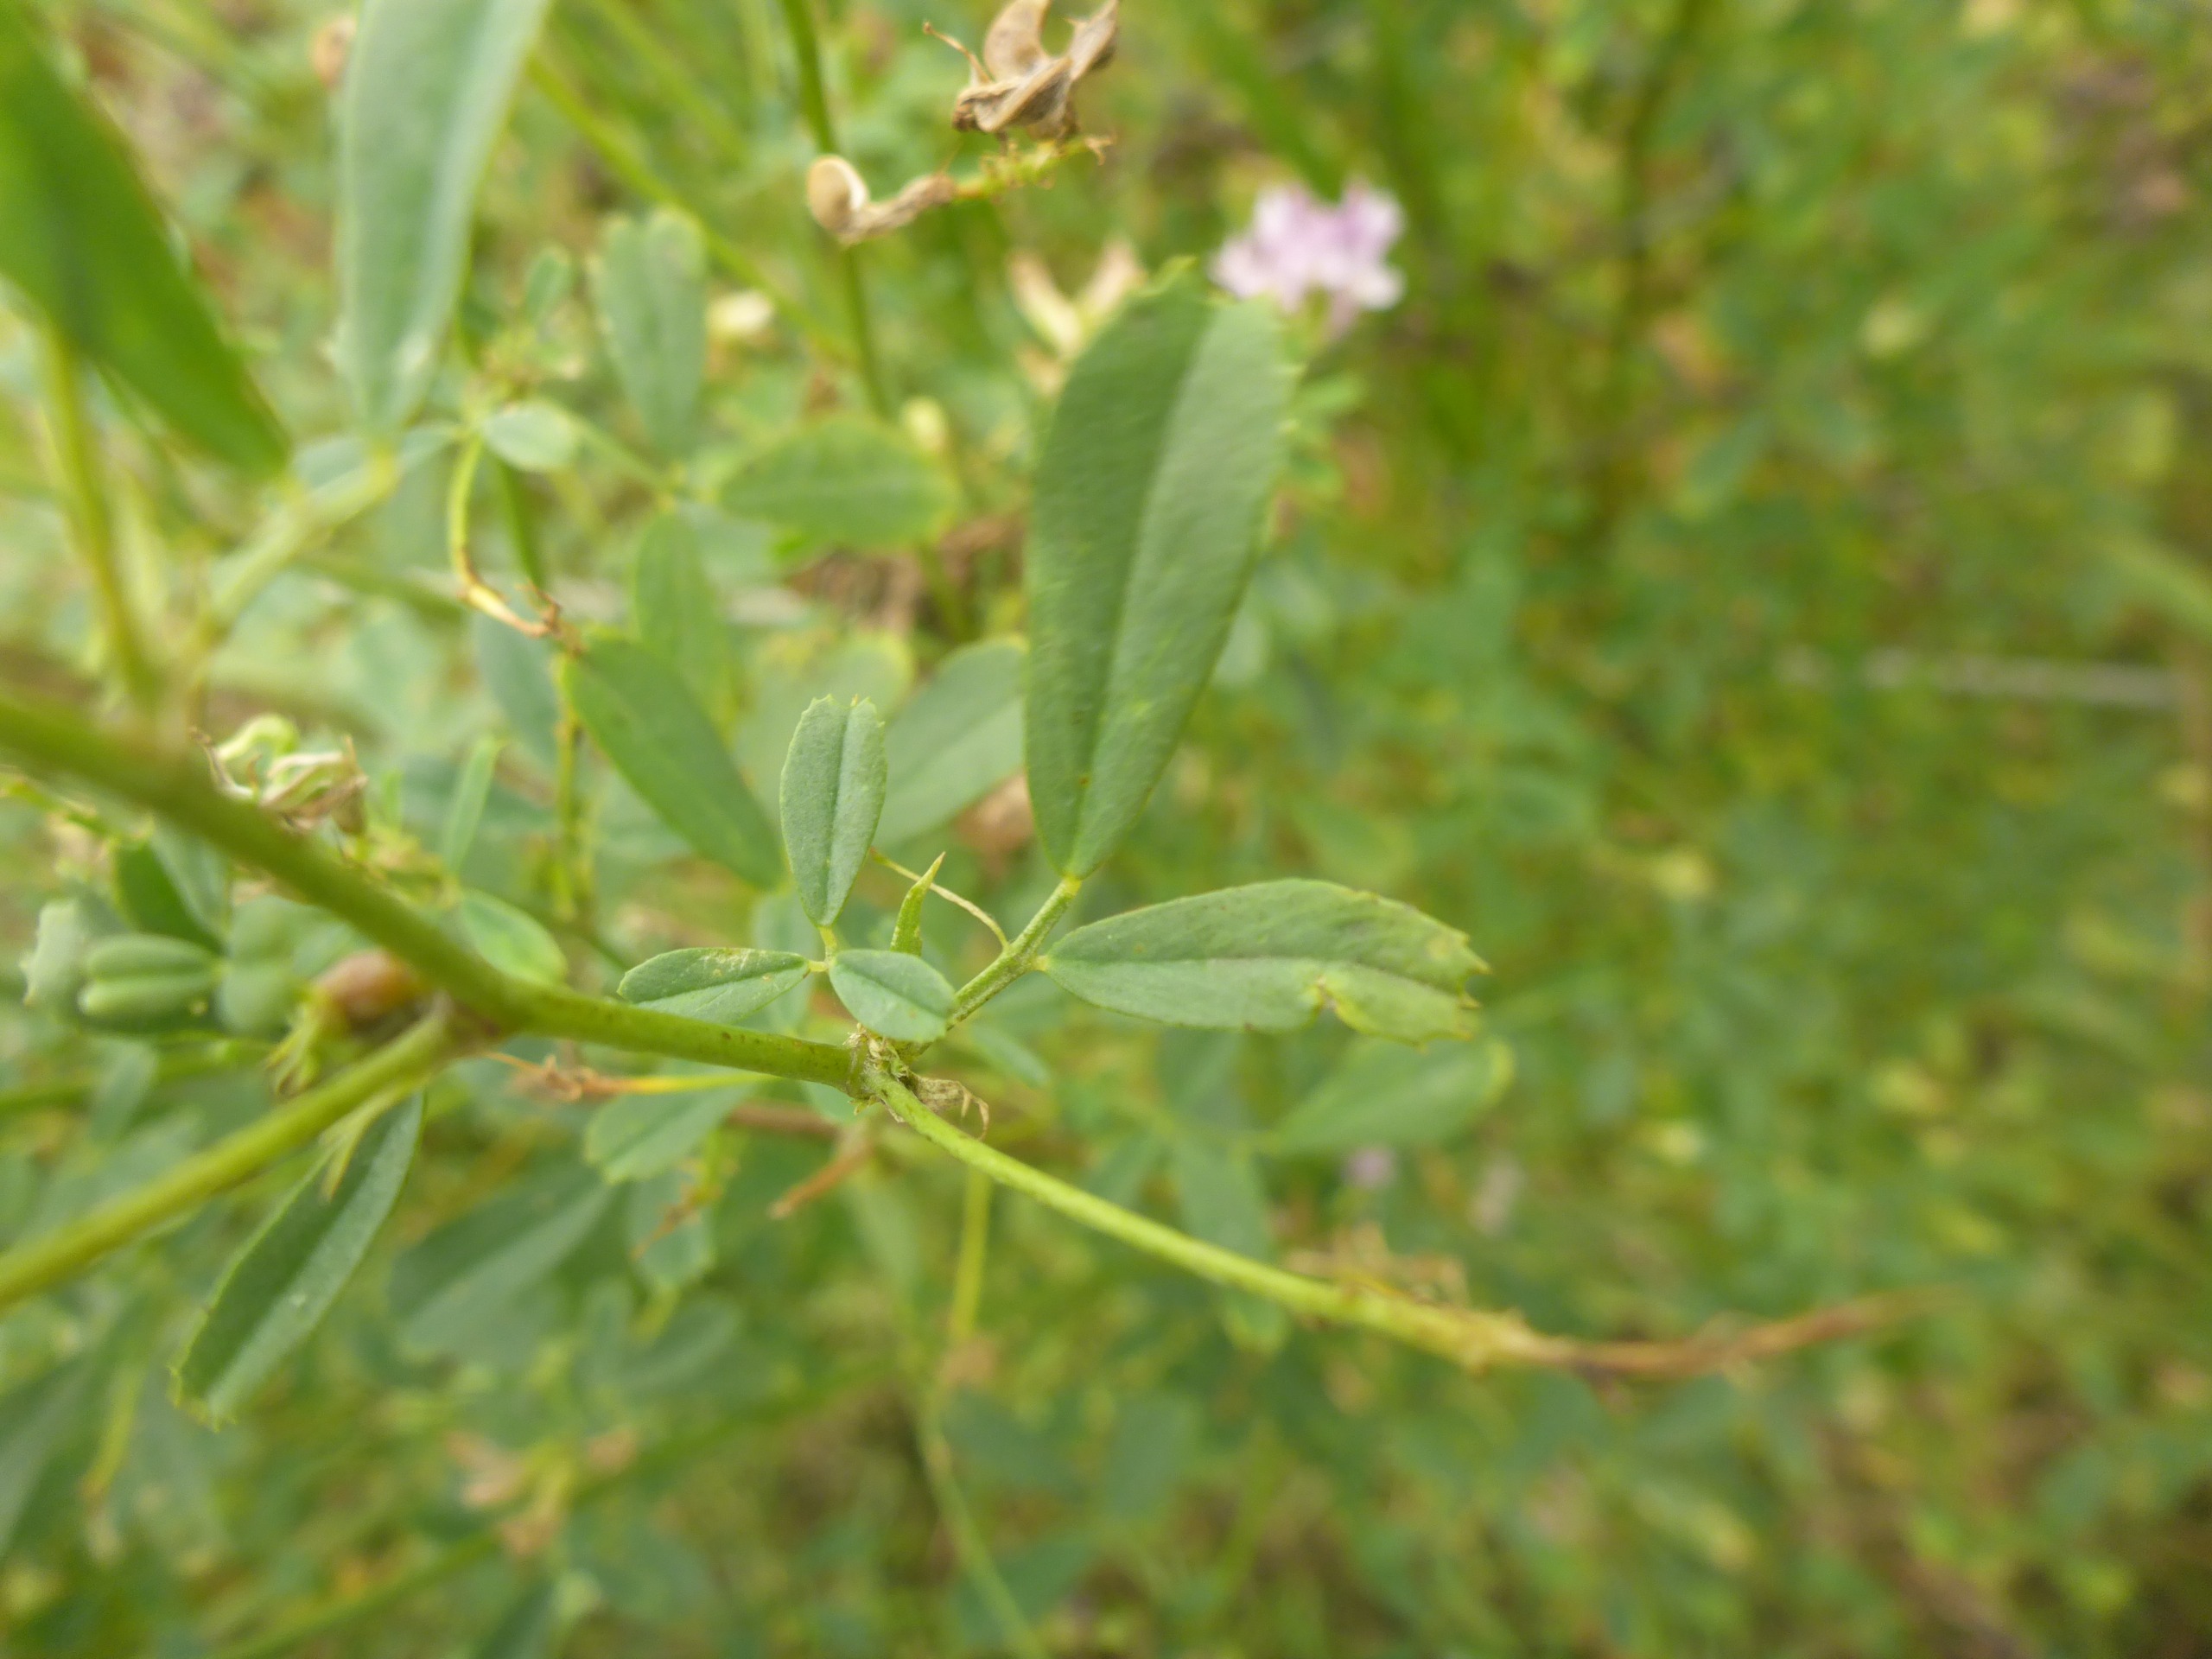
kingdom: Plantae
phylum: Tracheophyta
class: Magnoliopsida
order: Fabales
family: Fabaceae
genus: Medicago
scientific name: Medicago sativa
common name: Lucerne
